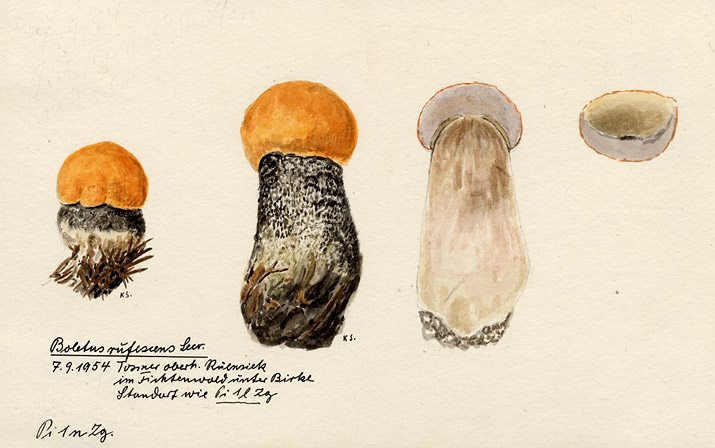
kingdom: Fungi
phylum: Basidiomycota
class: Agaricomycetes
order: Boletales
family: Boletaceae
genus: Leccinum
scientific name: Leccinum versipelle
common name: Orange birch bolete
